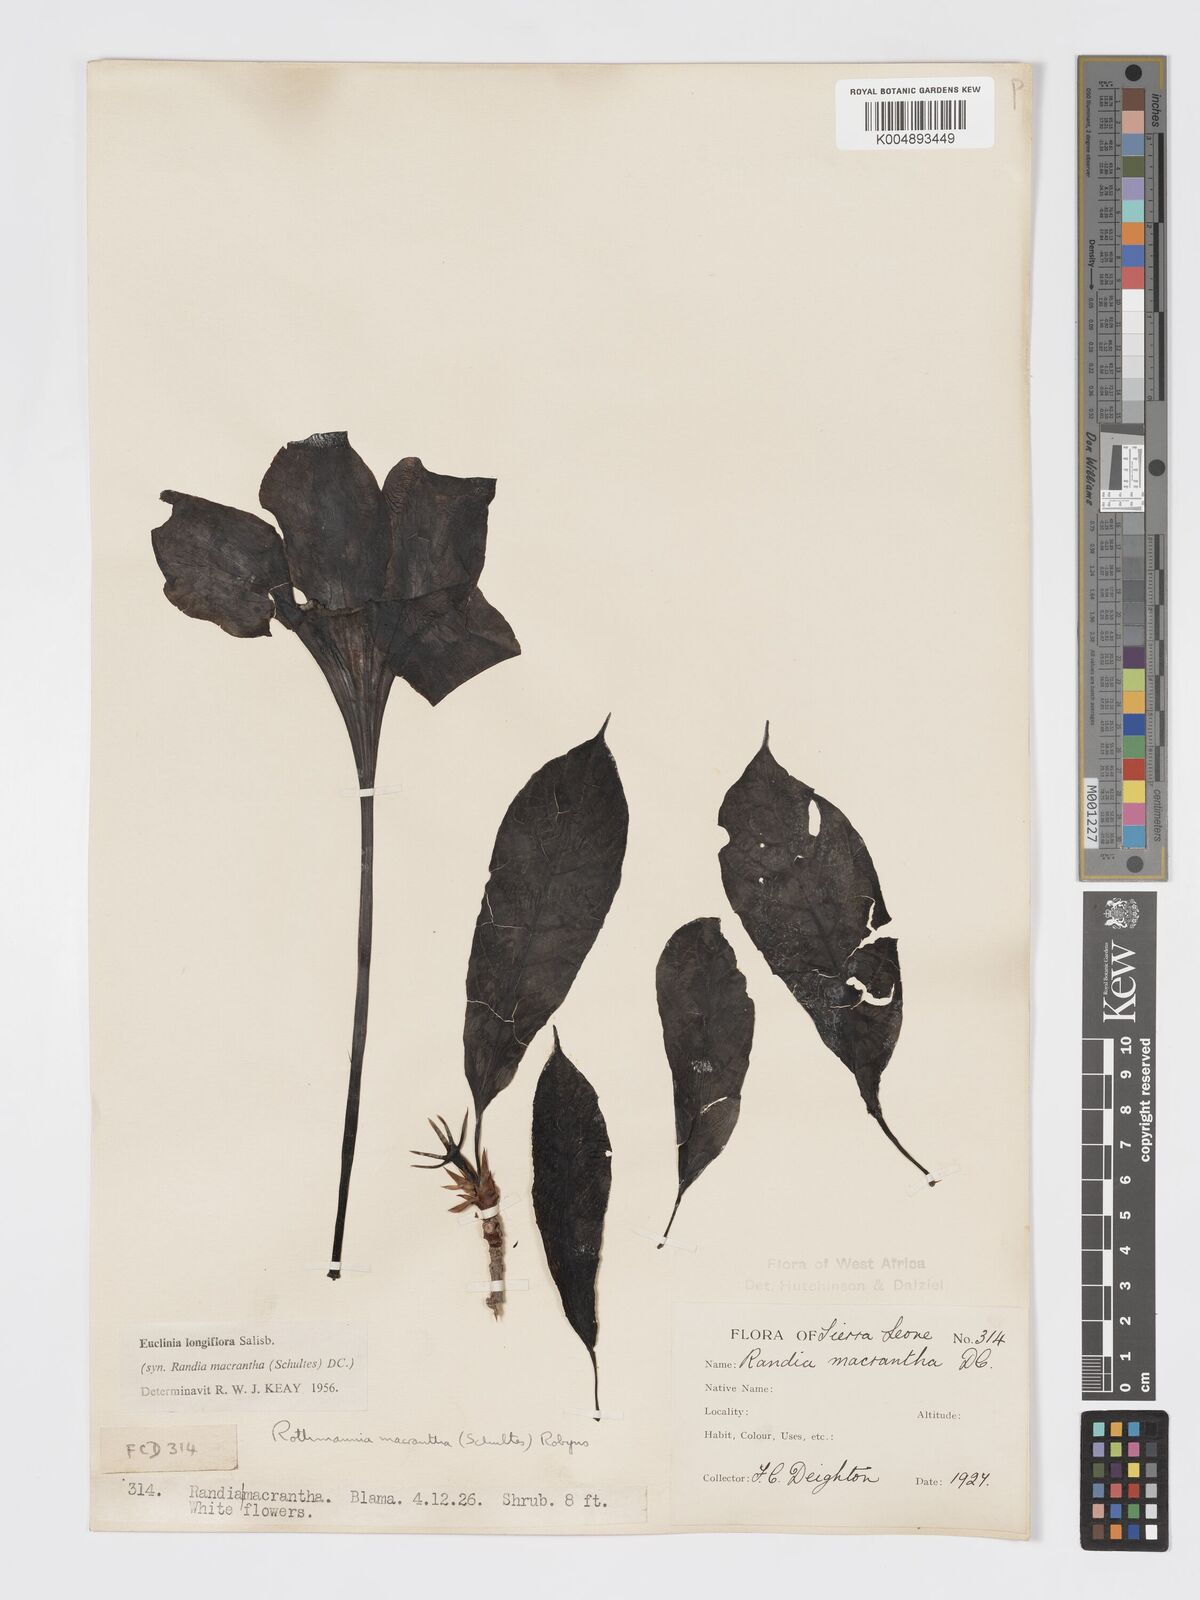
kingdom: Plantae
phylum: Tracheophyta
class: Magnoliopsida
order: Gentianales
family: Rubiaceae
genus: Euclinia
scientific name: Euclinia longiflora
